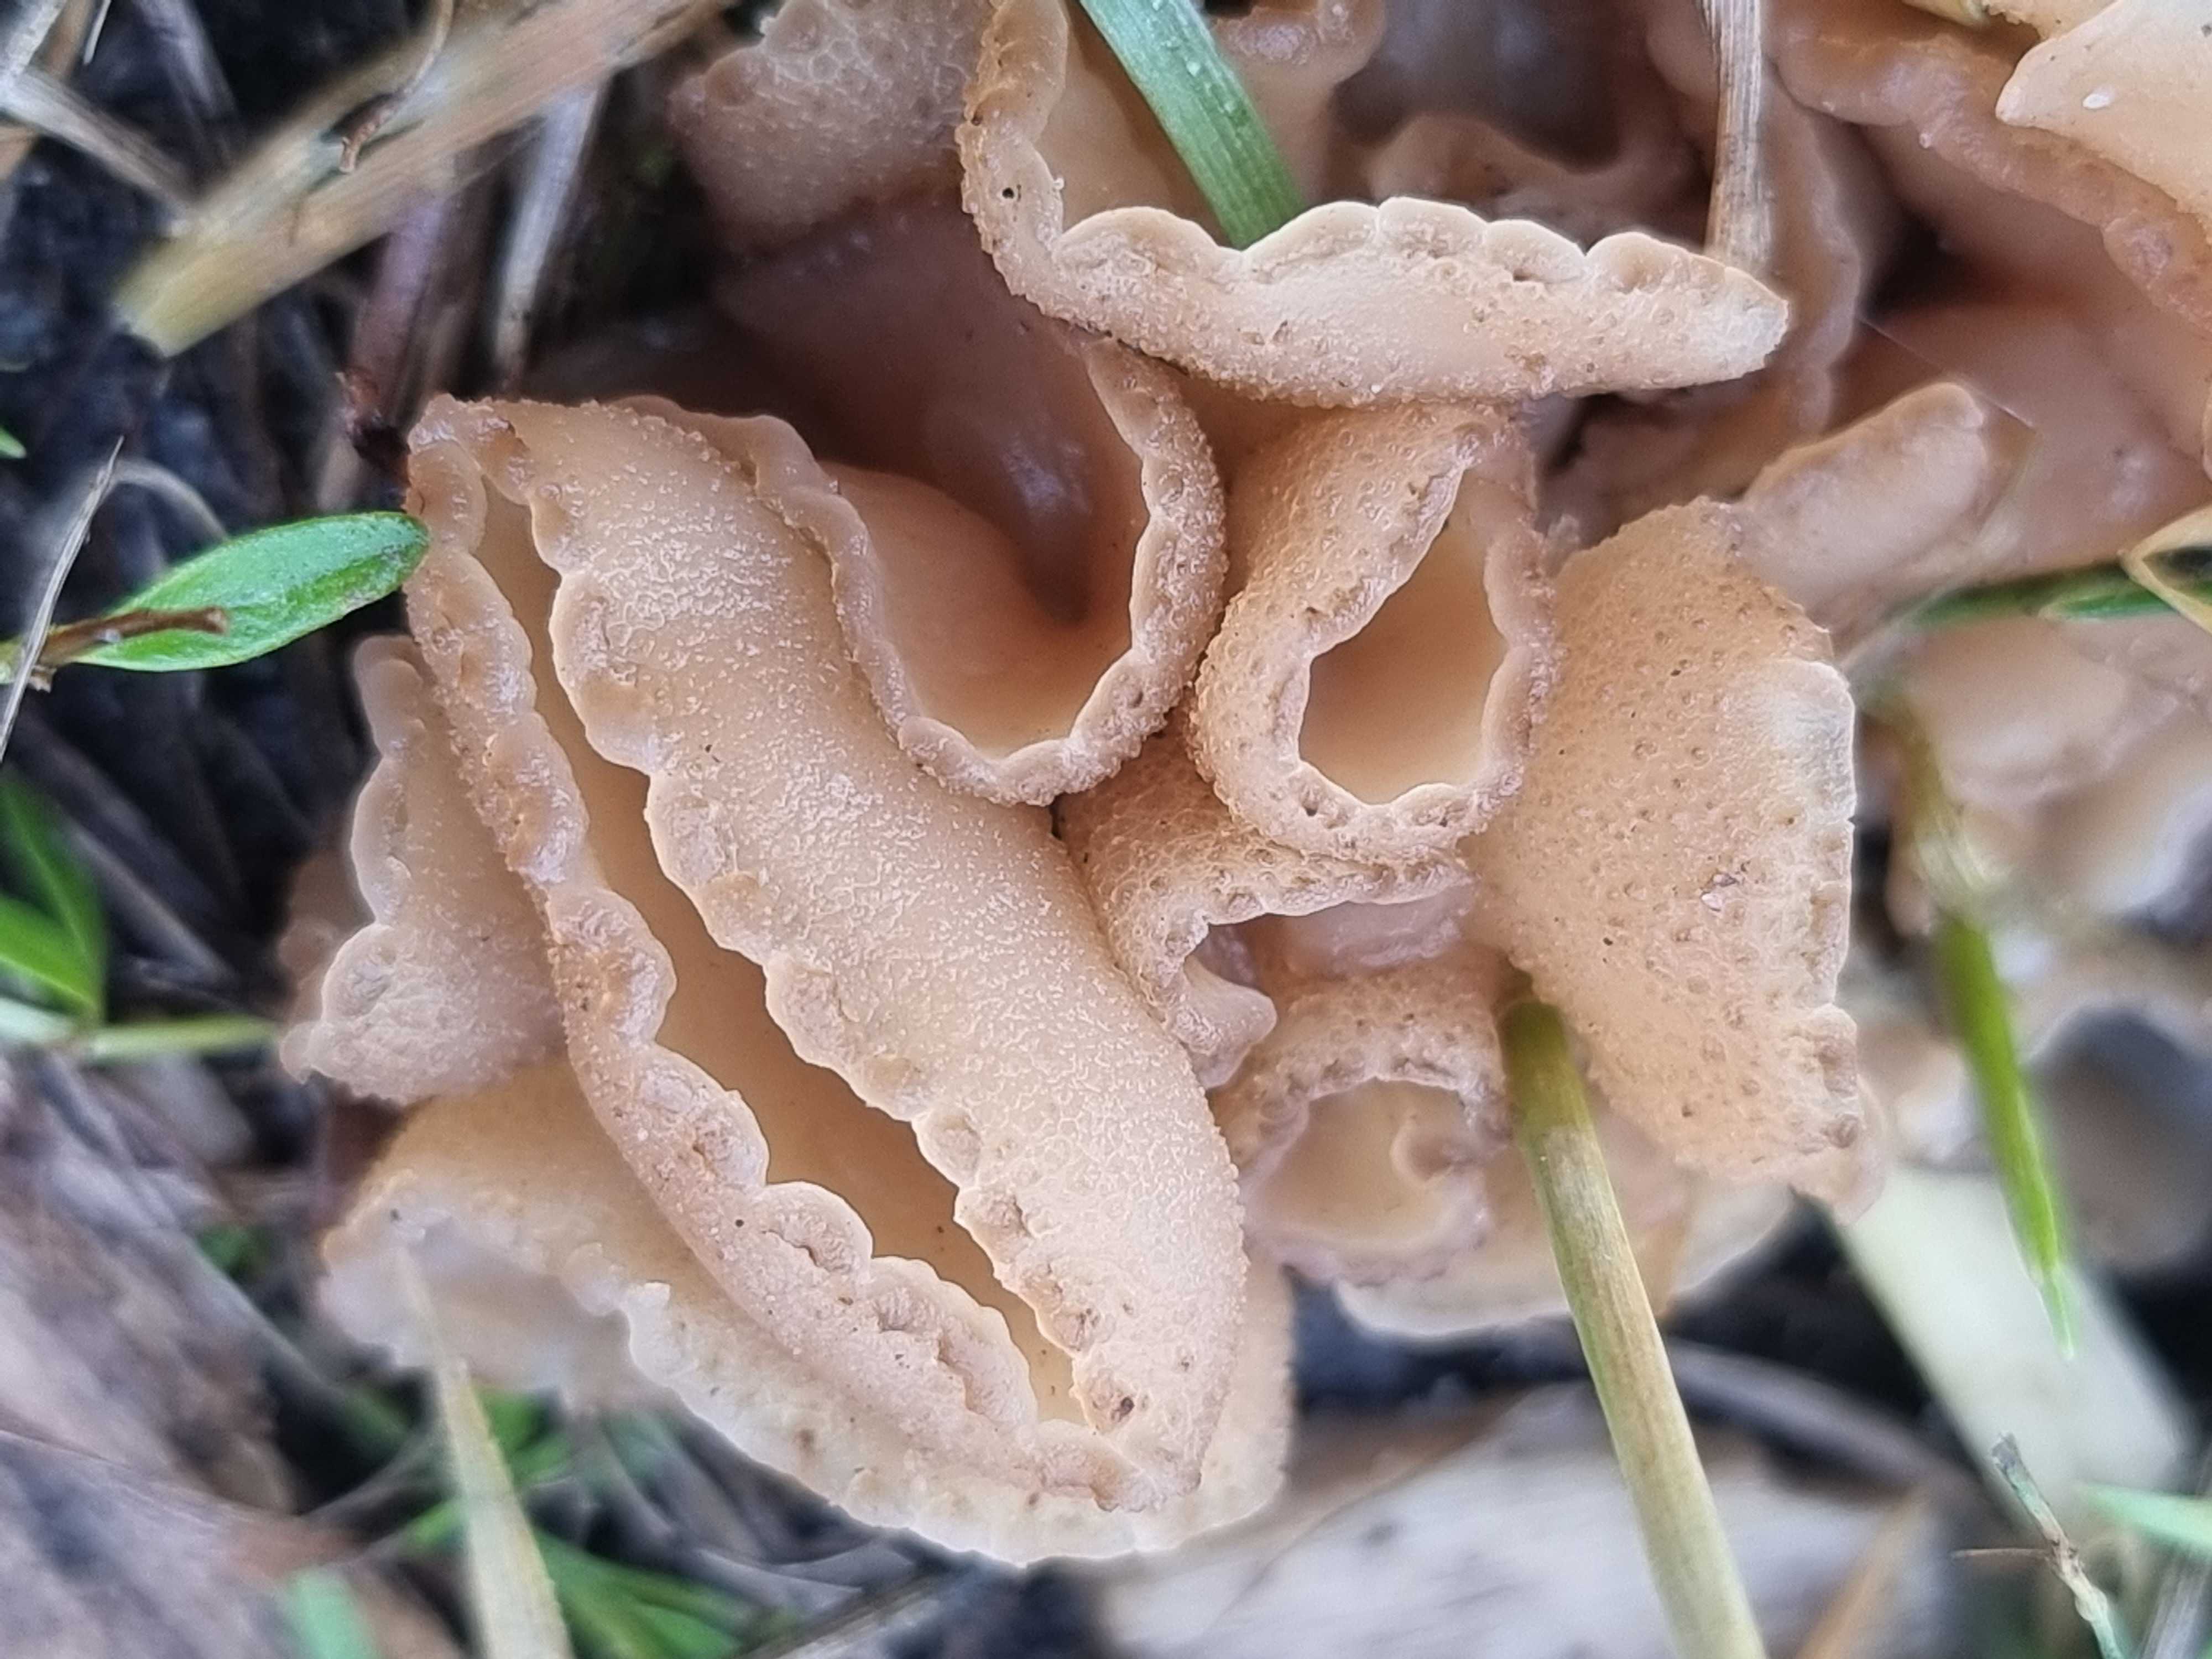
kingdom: Fungi
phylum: Ascomycota
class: Pezizomycetes
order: Pezizales
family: Pezizaceae
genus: Peziza
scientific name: Peziza vesiculosa
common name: blære-bægersvamp
